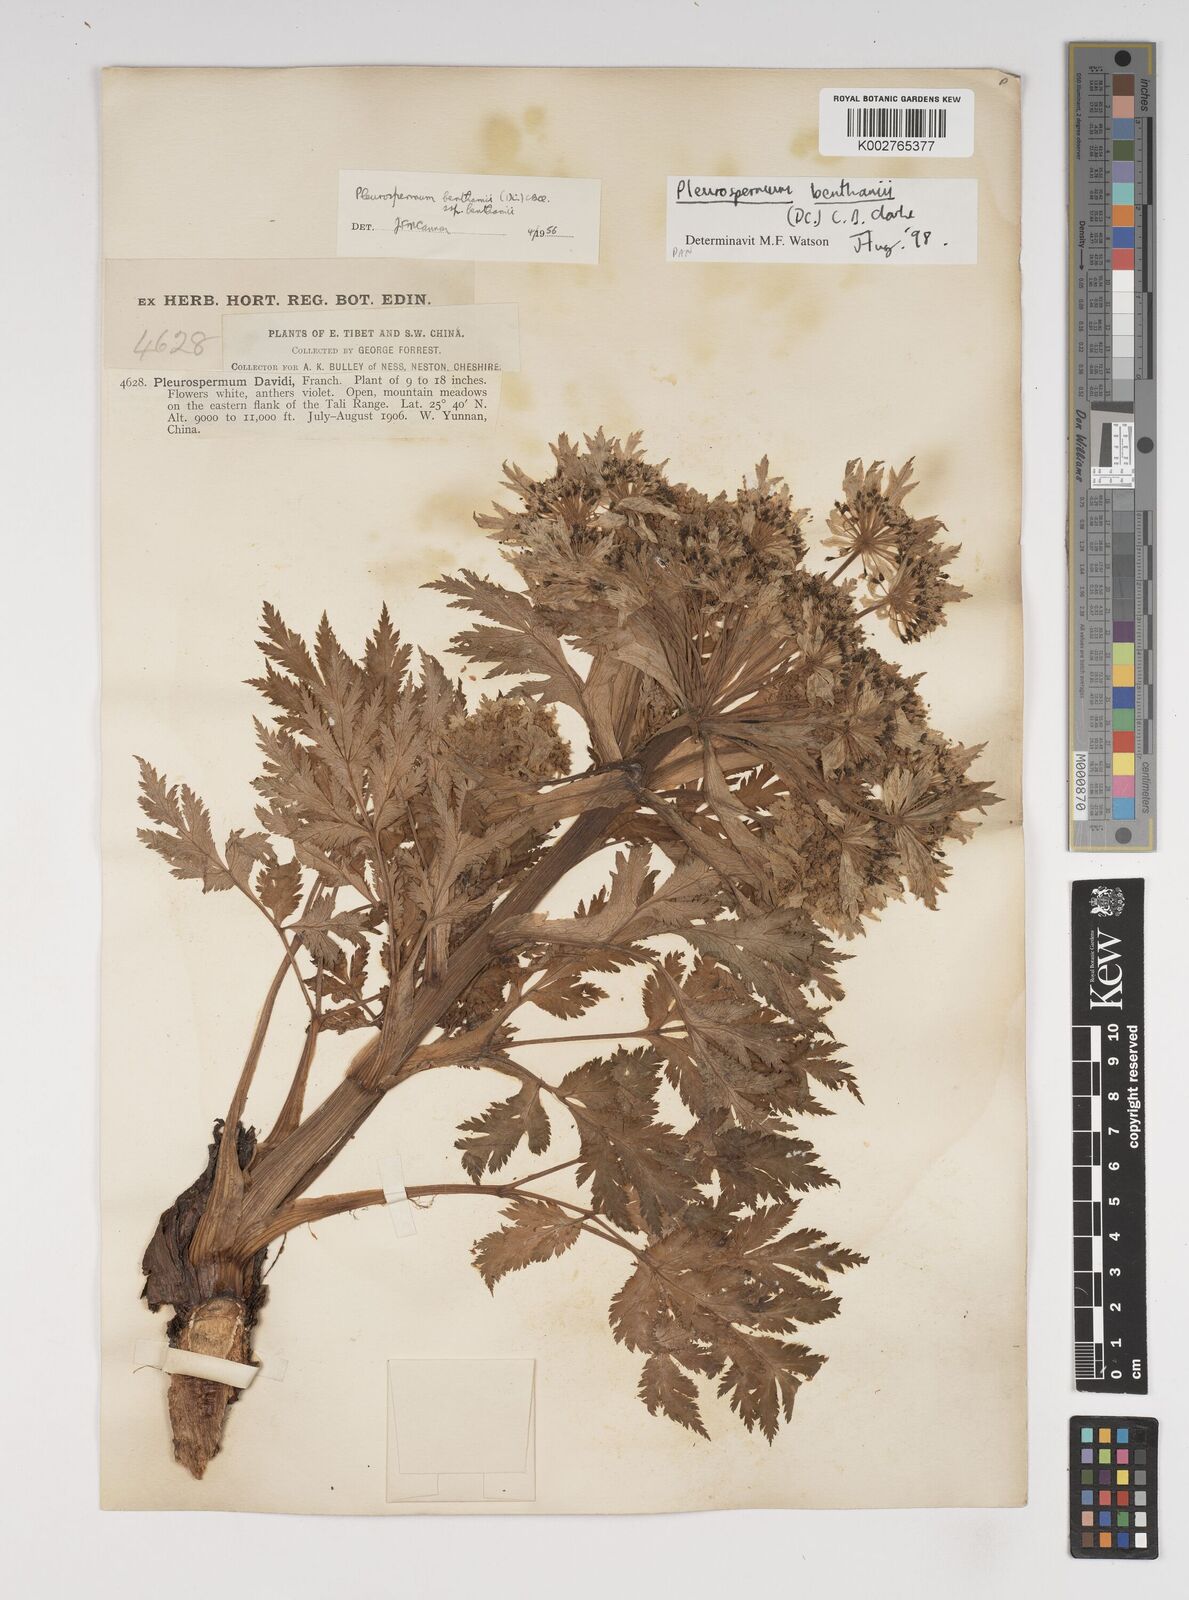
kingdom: Plantae
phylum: Tracheophyta
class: Magnoliopsida
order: Apiales
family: Apiaceae
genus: Hymenidium
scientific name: Hymenidium benthamii
